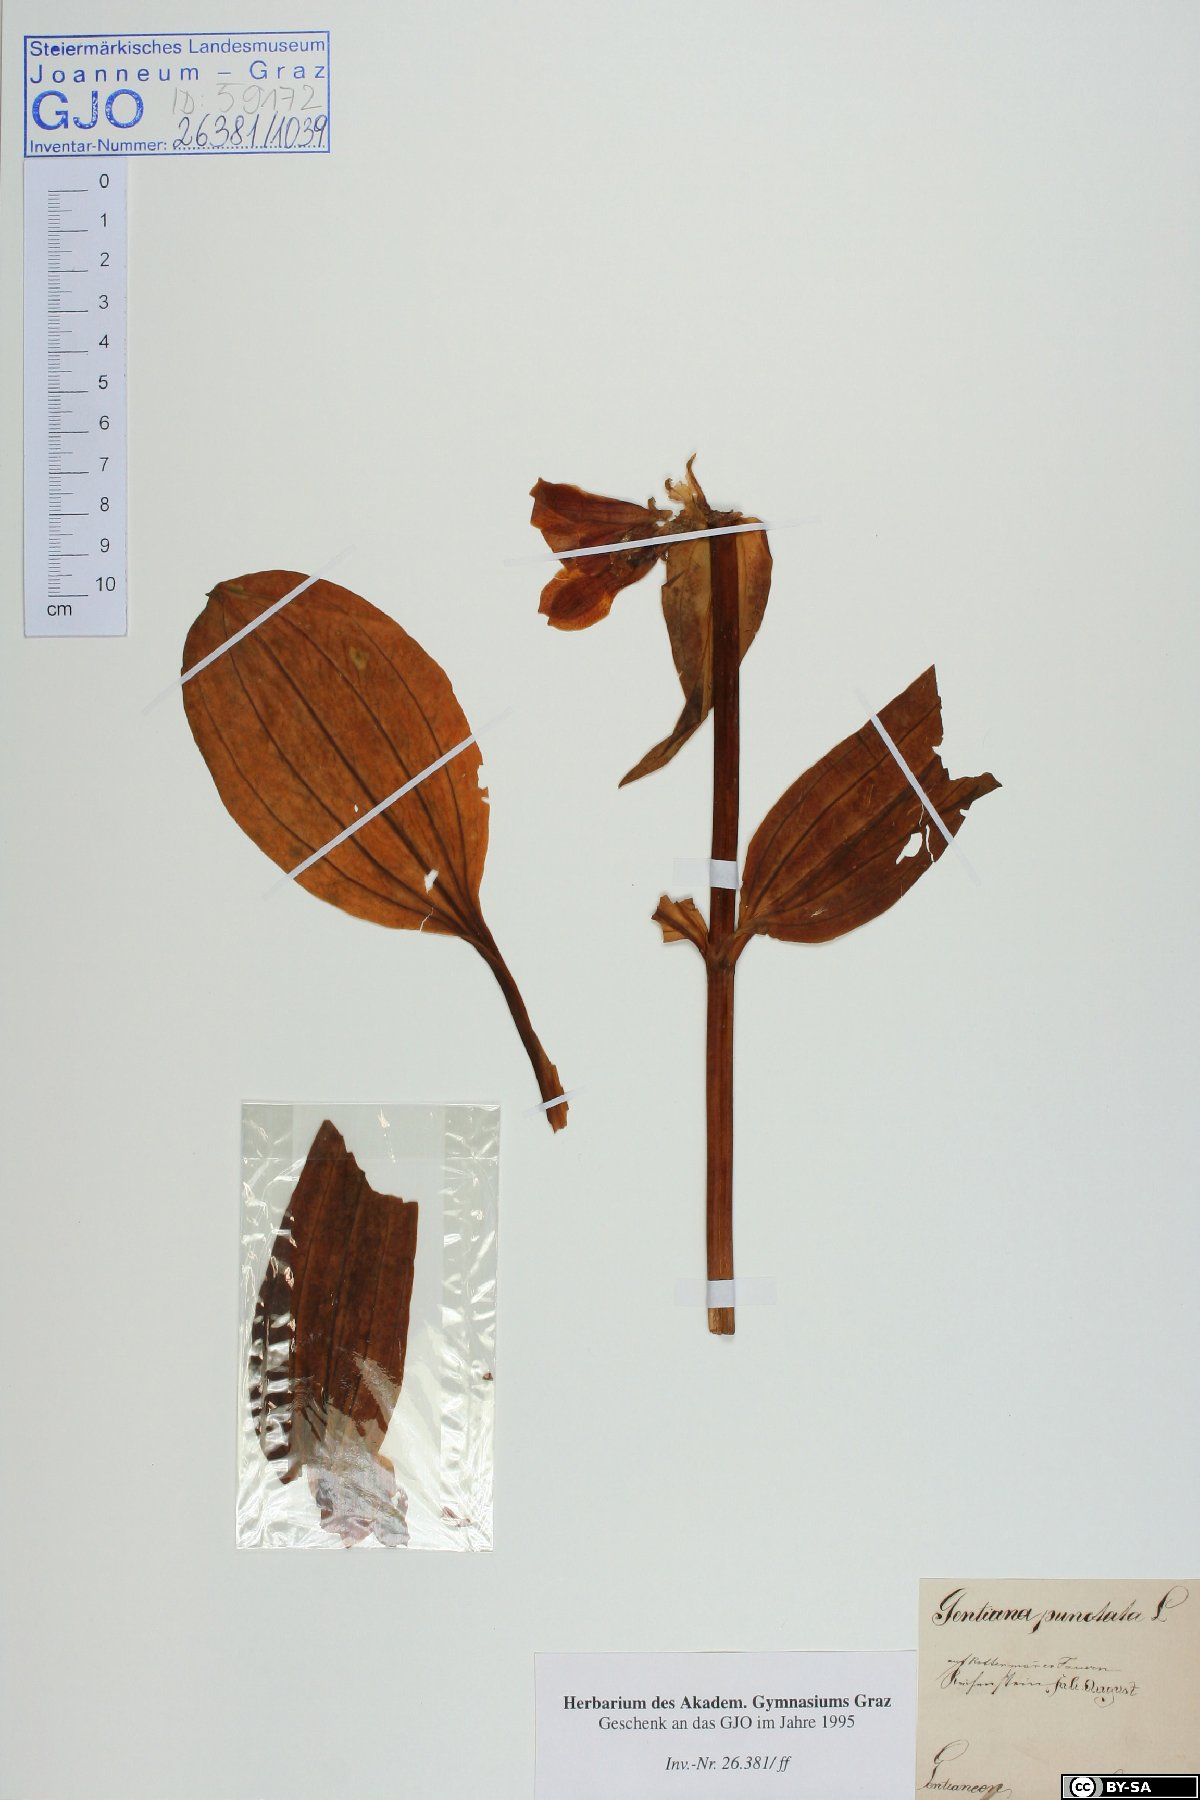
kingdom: Plantae
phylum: Tracheophyta
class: Magnoliopsida
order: Gentianales
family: Gentianaceae
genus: Gentiana
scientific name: Gentiana punctata
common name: Spotted gentian
